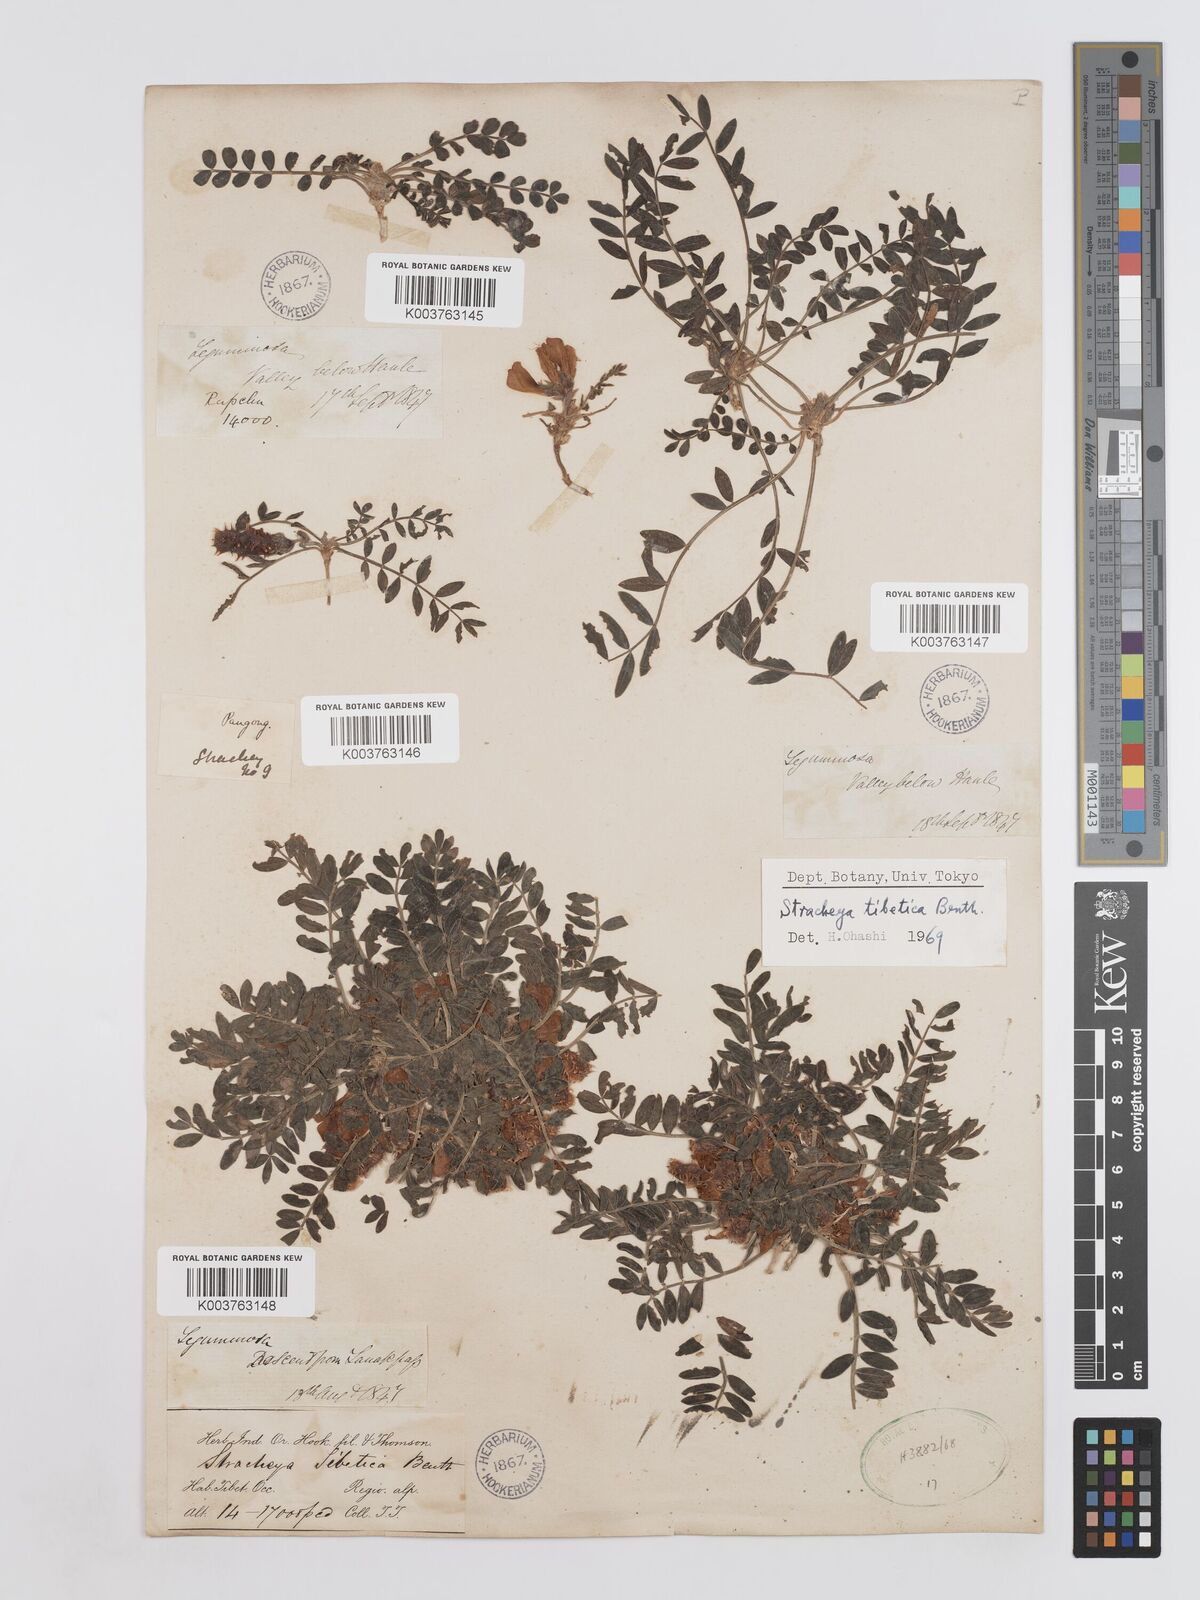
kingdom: Plantae
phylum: Tracheophyta
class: Magnoliopsida
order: Fabales
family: Fabaceae
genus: Hedysarum
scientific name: Hedysarum tibeticum
